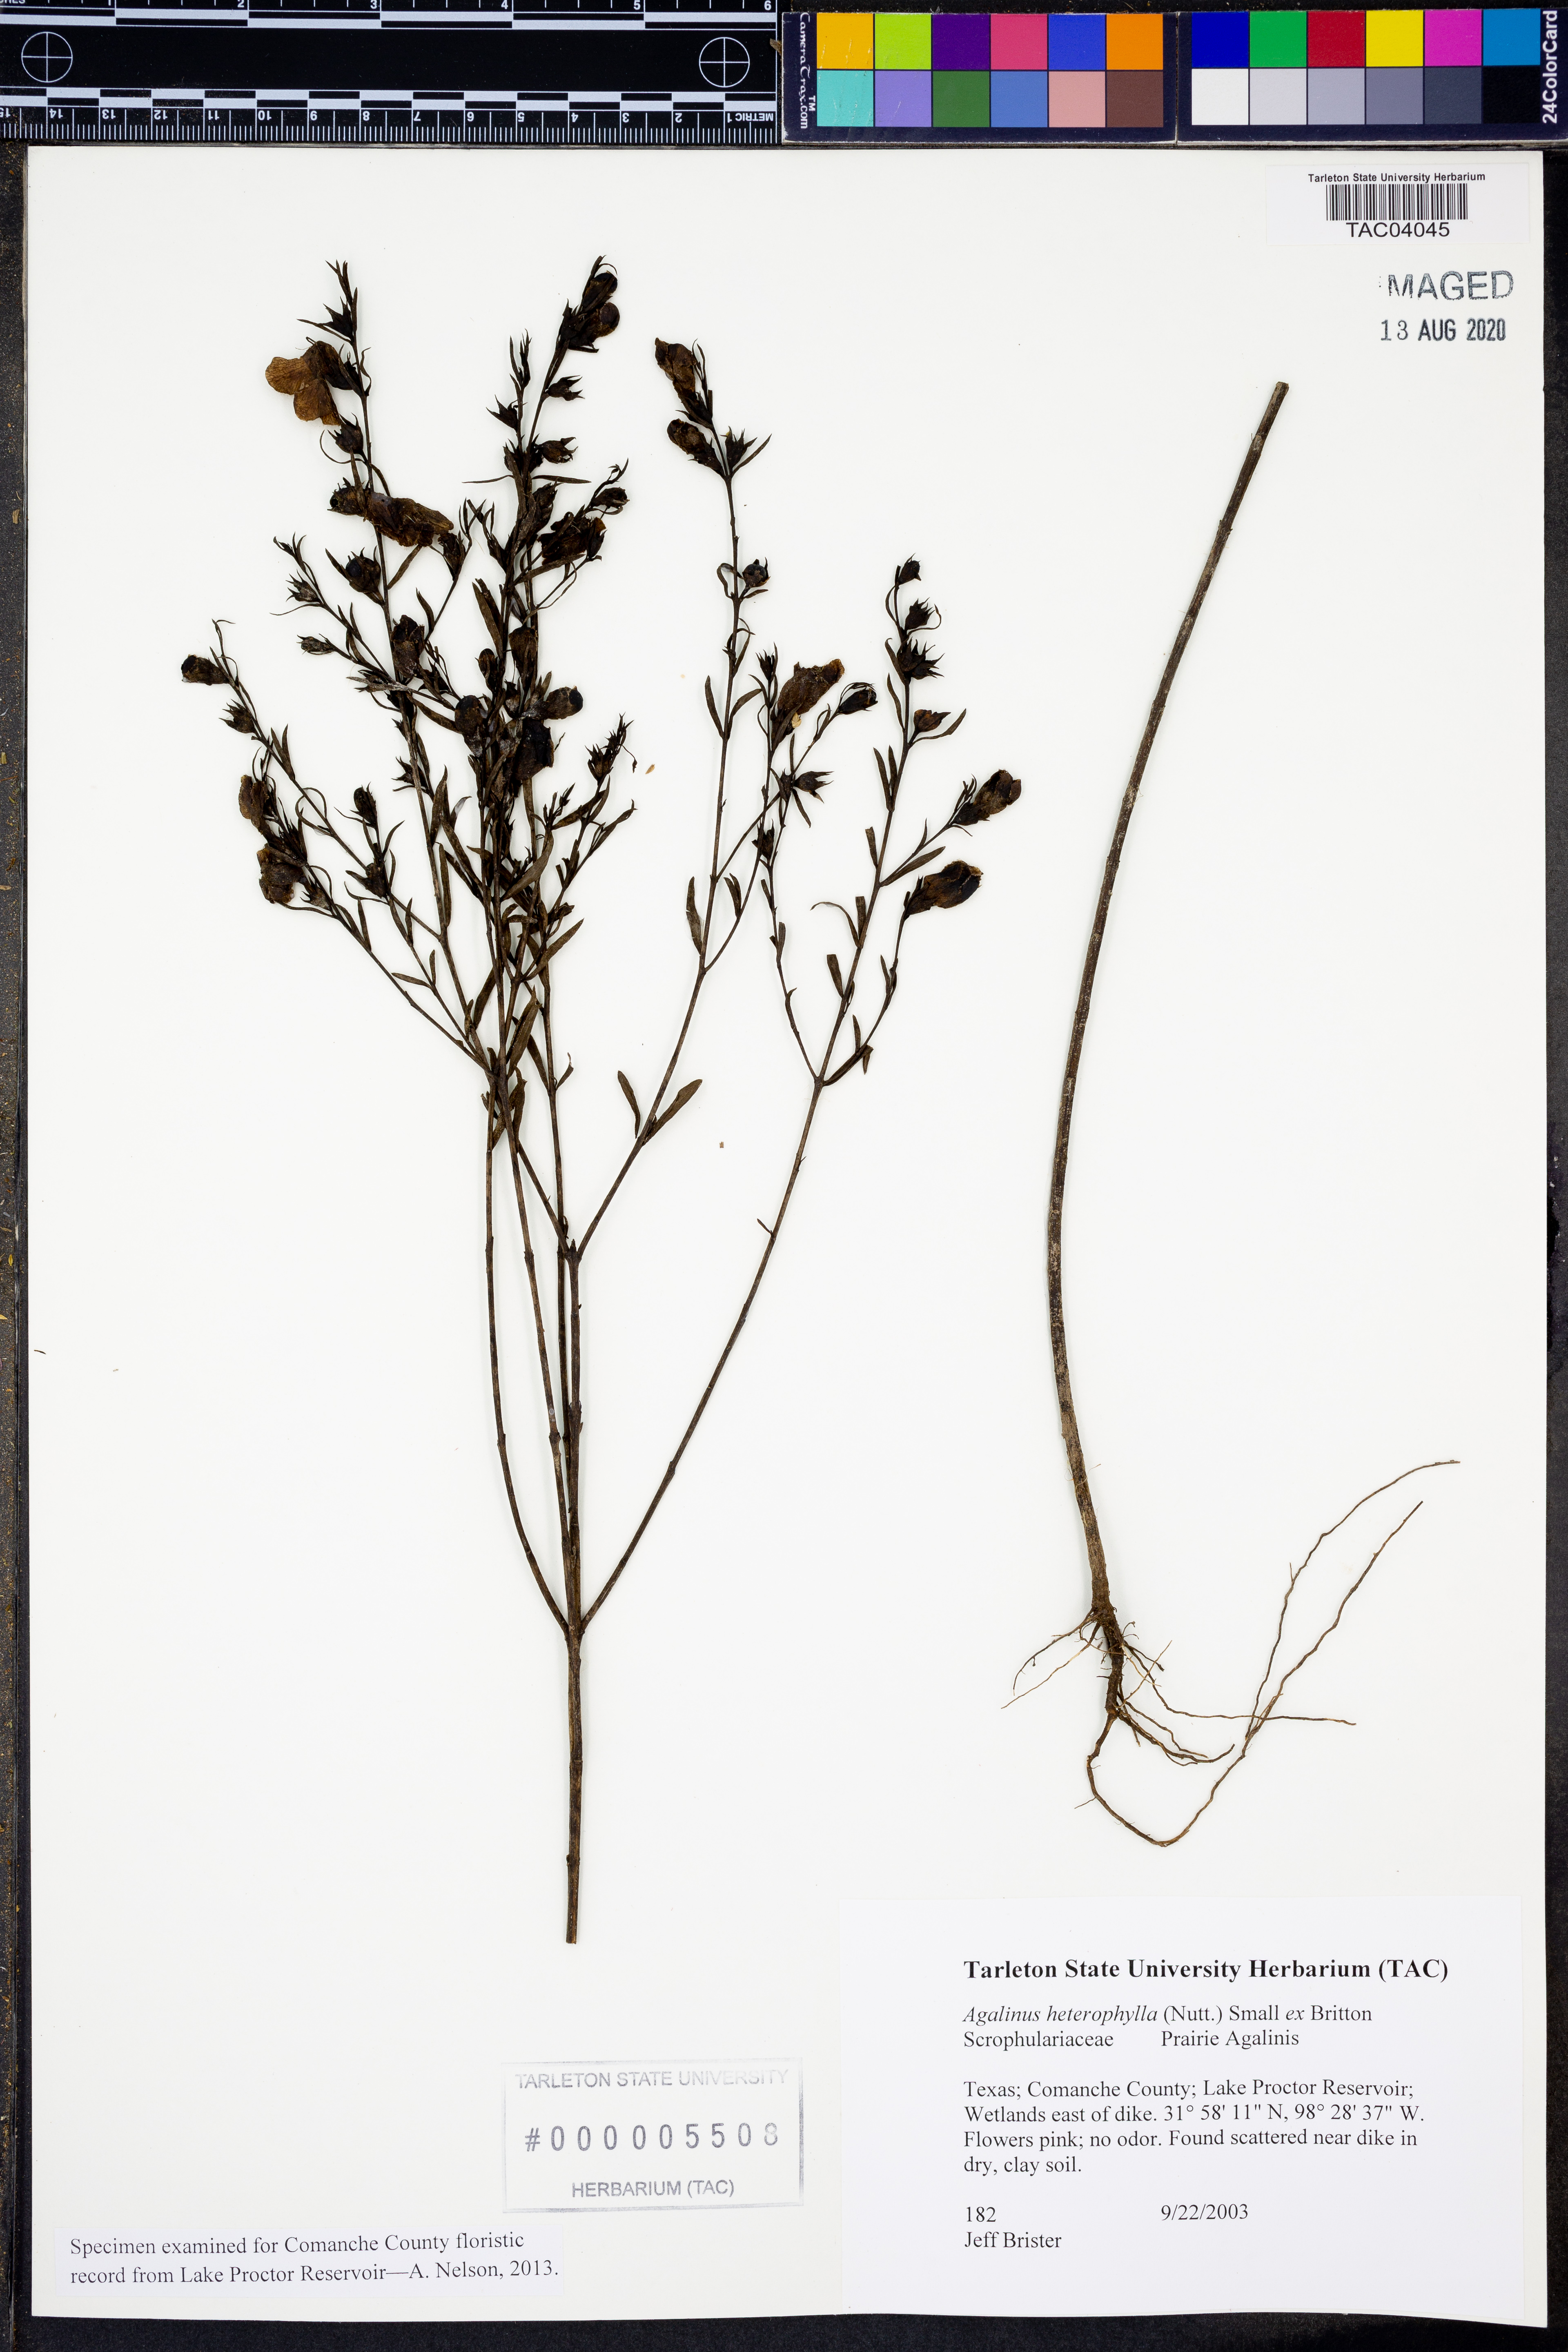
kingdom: Plantae
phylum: Tracheophyta
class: Magnoliopsida
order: Lamiales
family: Orobanchaceae
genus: Agalinis
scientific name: Agalinis heterophylla
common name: Prairie agalinis
